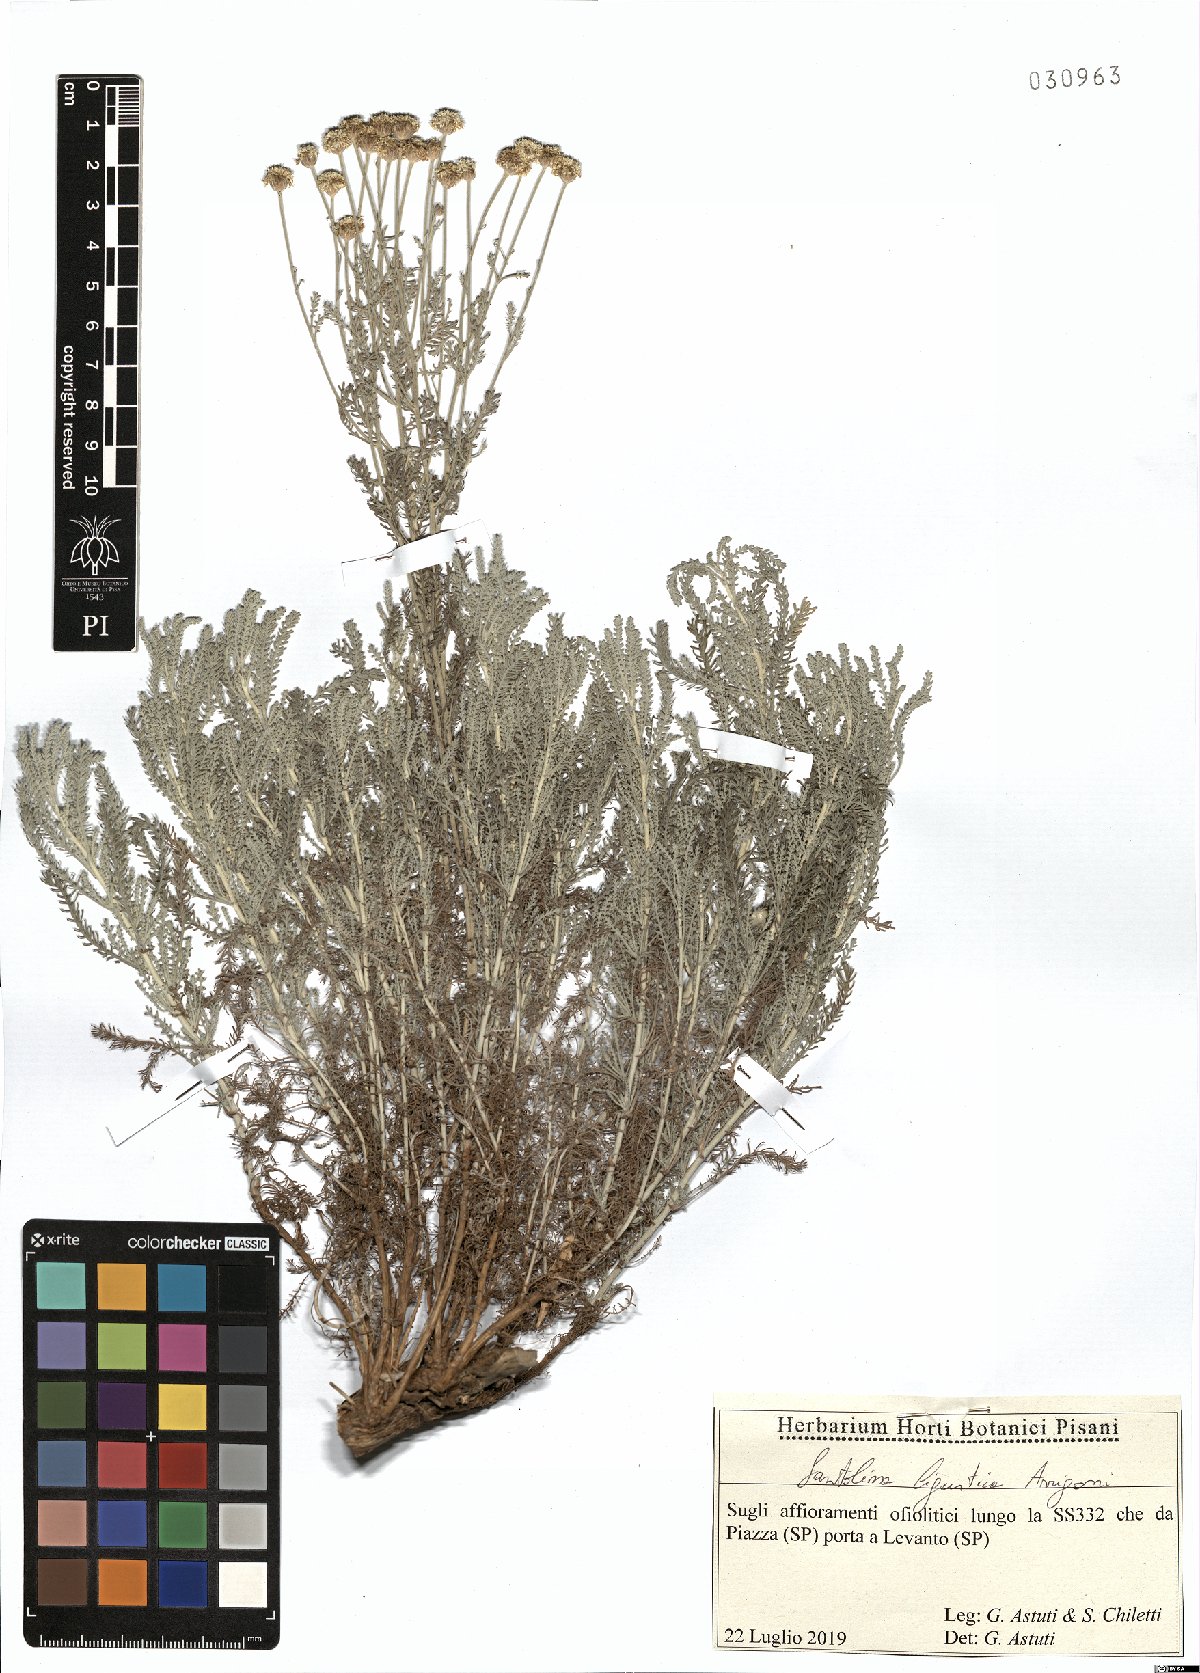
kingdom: Plantae
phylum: Tracheophyta
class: Magnoliopsida
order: Asterales
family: Asteraceae
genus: Santolina
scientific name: Santolina ligustica
